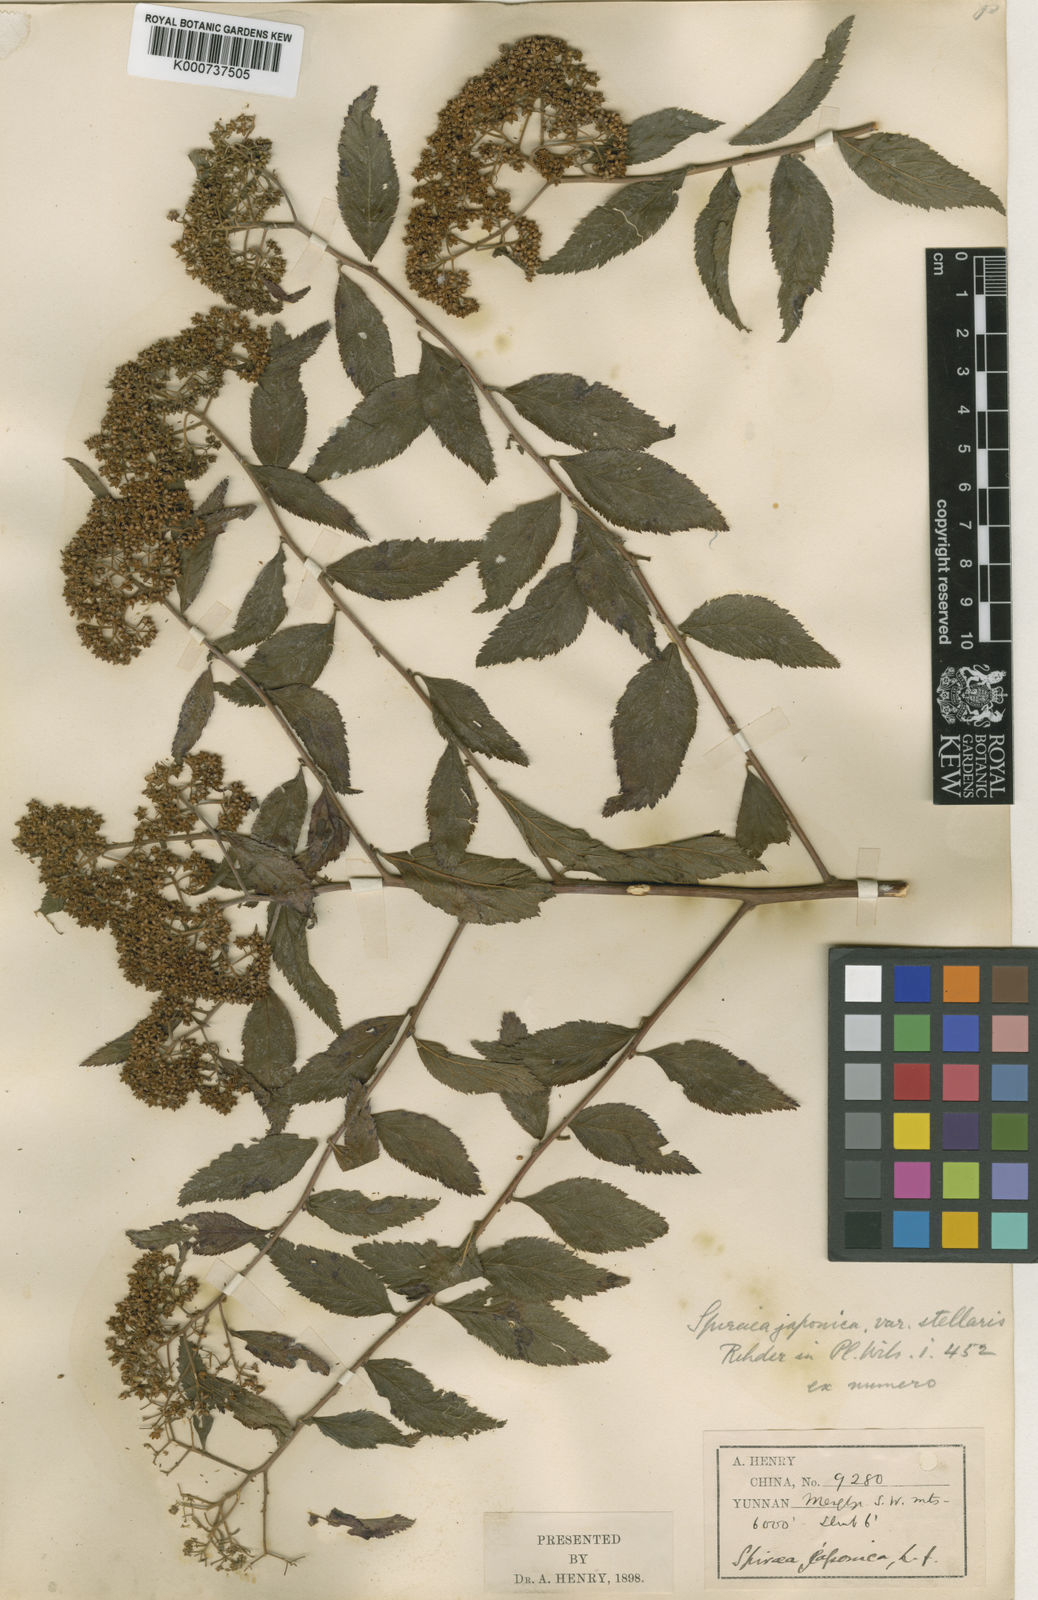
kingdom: Plantae
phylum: Tracheophyta
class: Magnoliopsida
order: Rosales
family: Rosaceae
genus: Spiraea
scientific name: Spiraea japonica
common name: Japanese spiraea
